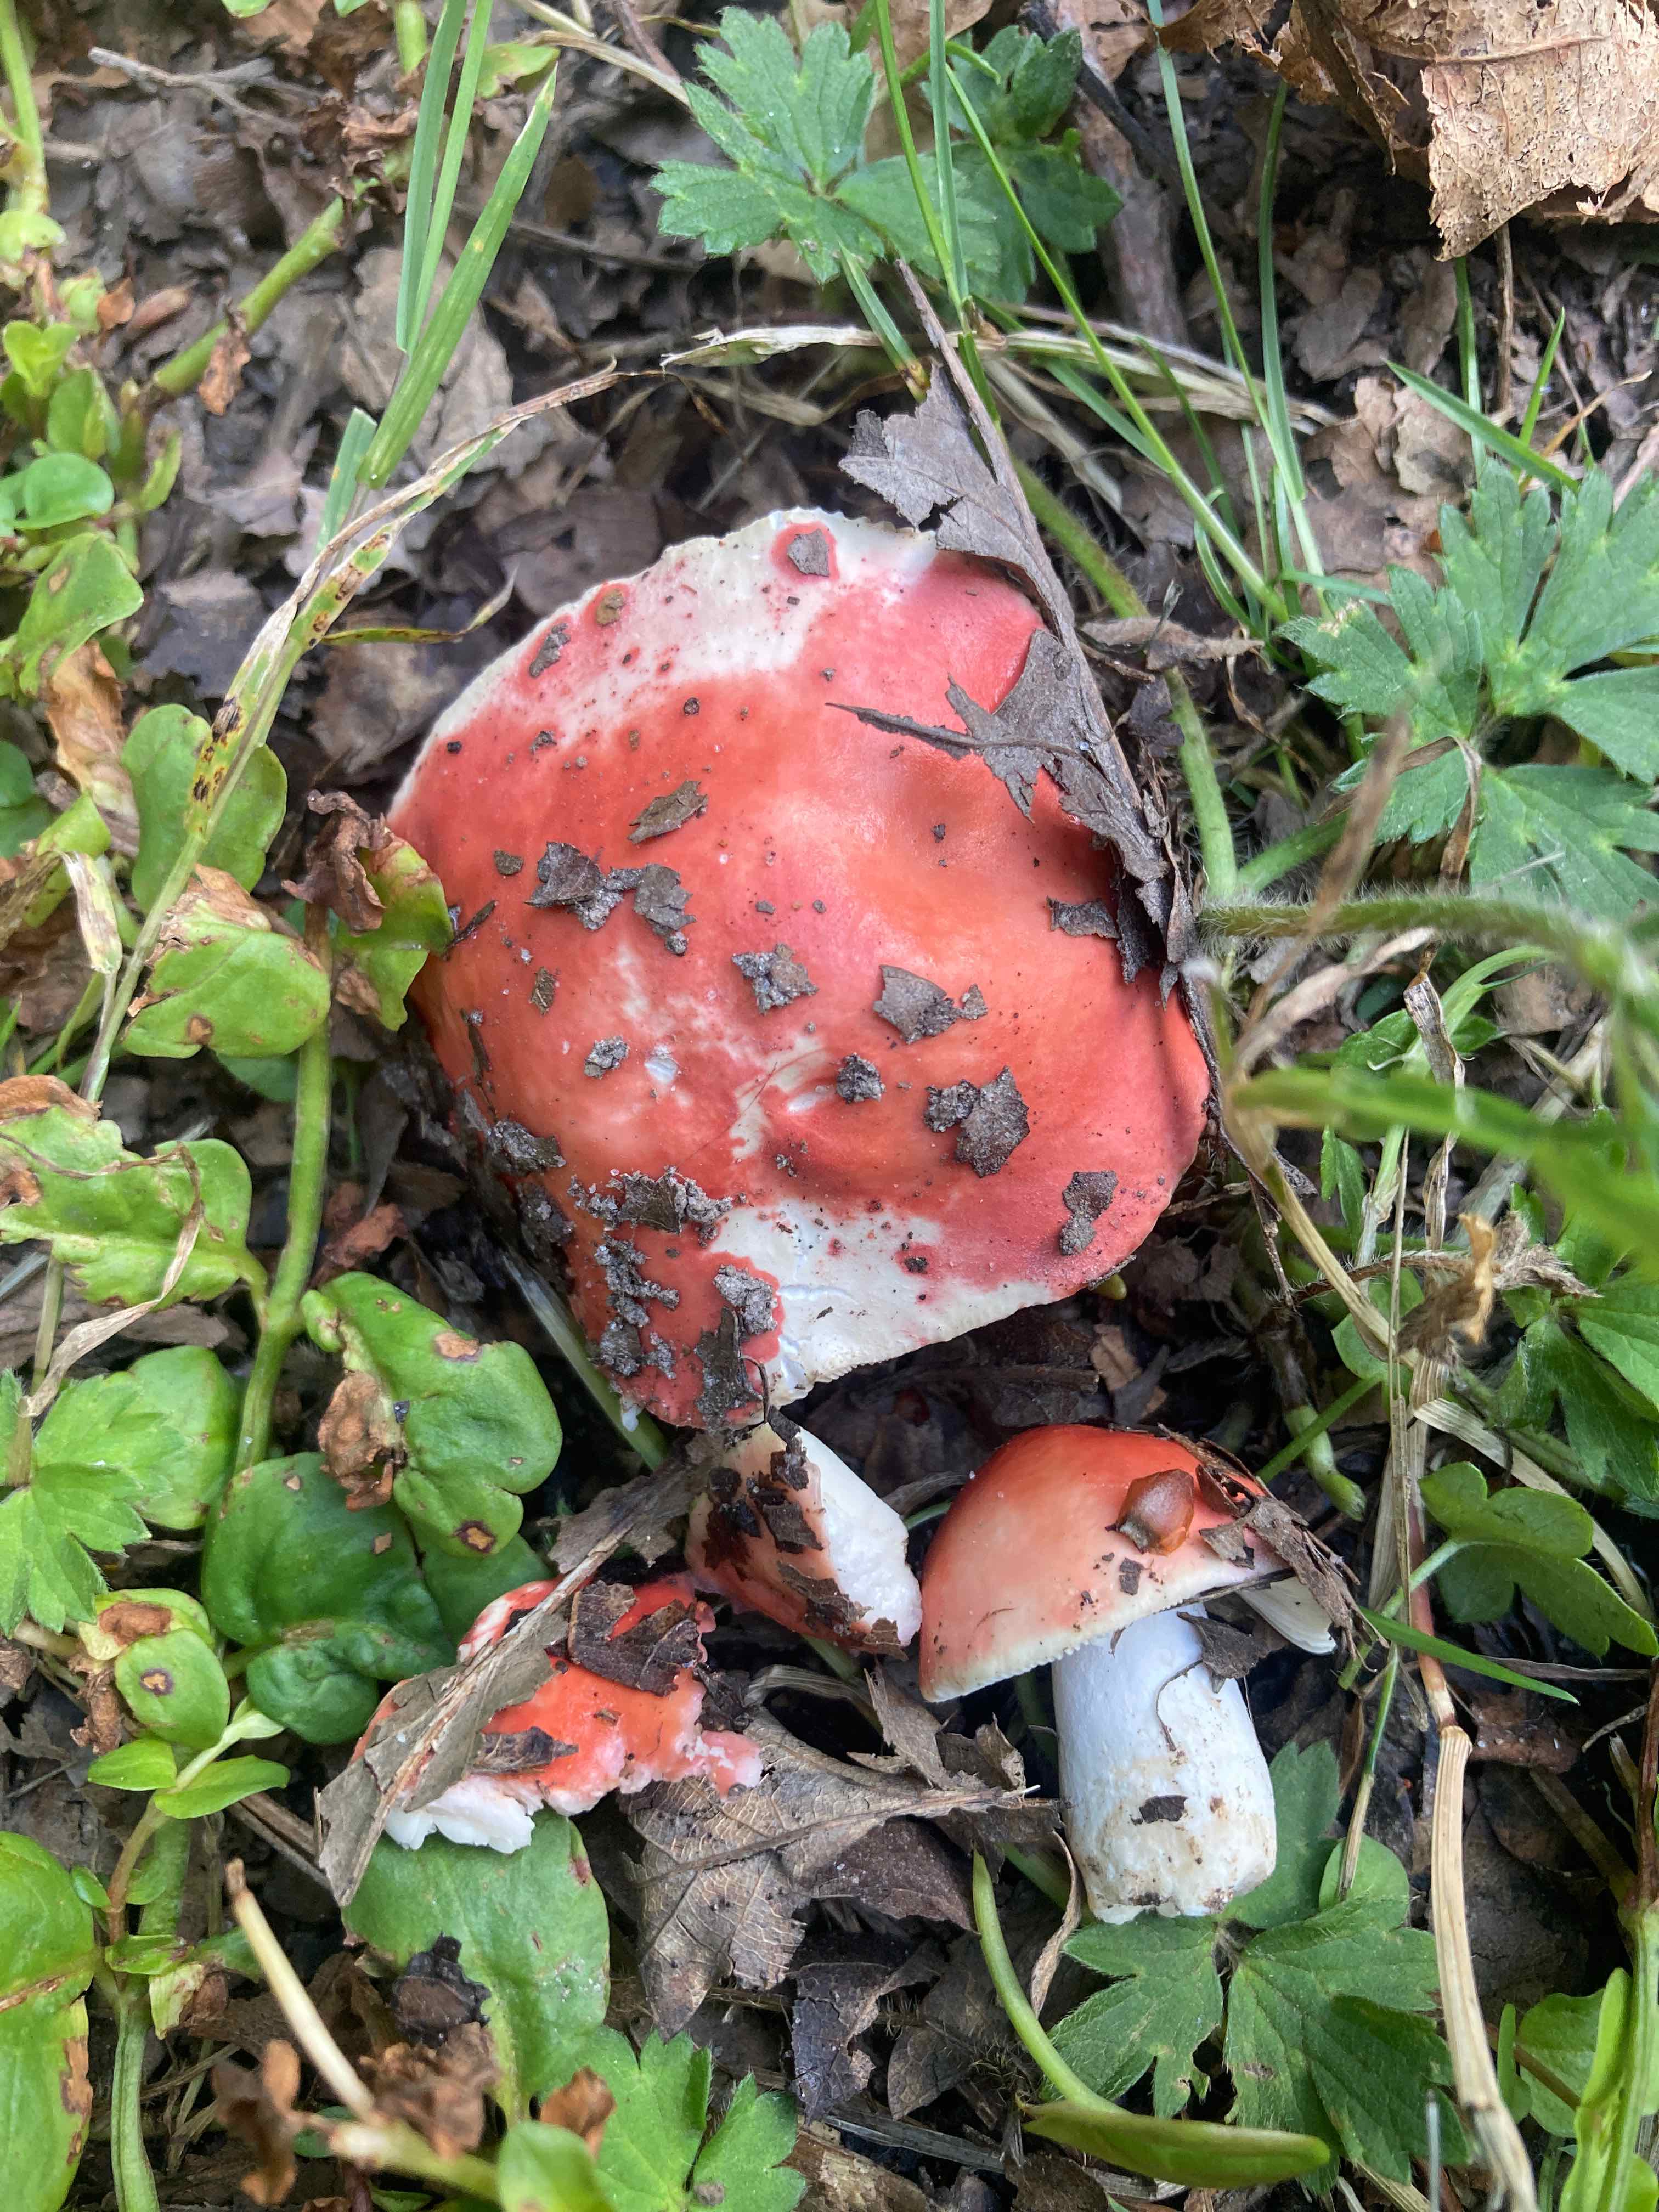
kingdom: Fungi
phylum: Basidiomycota
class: Agaricomycetes
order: Russulales
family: Russulaceae
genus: Russula
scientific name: Russula pseudointegra
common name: cinnoberrød skørhat
